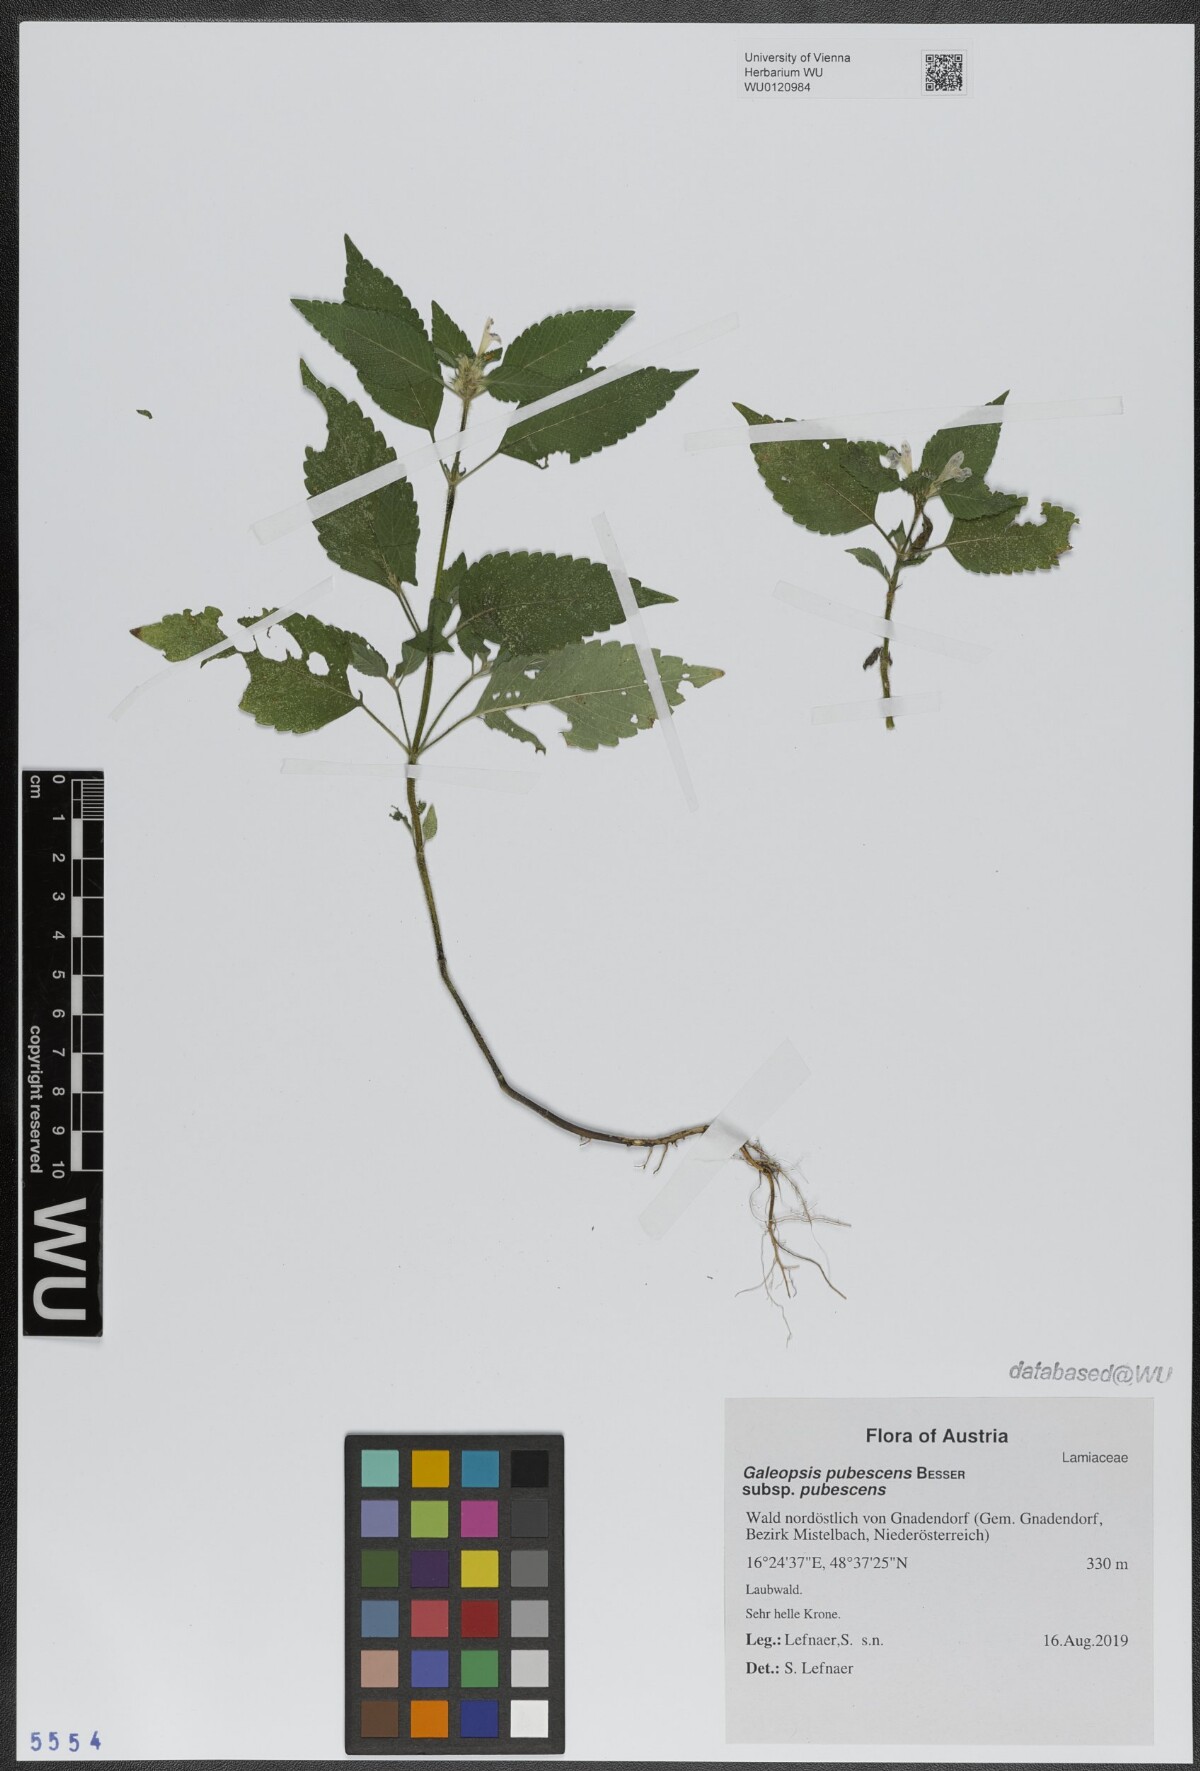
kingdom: Plantae
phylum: Tracheophyta
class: Magnoliopsida
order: Lamiales
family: Lamiaceae
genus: Galeopsis
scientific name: Galeopsis pubescens
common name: Downy hemp-nettle
